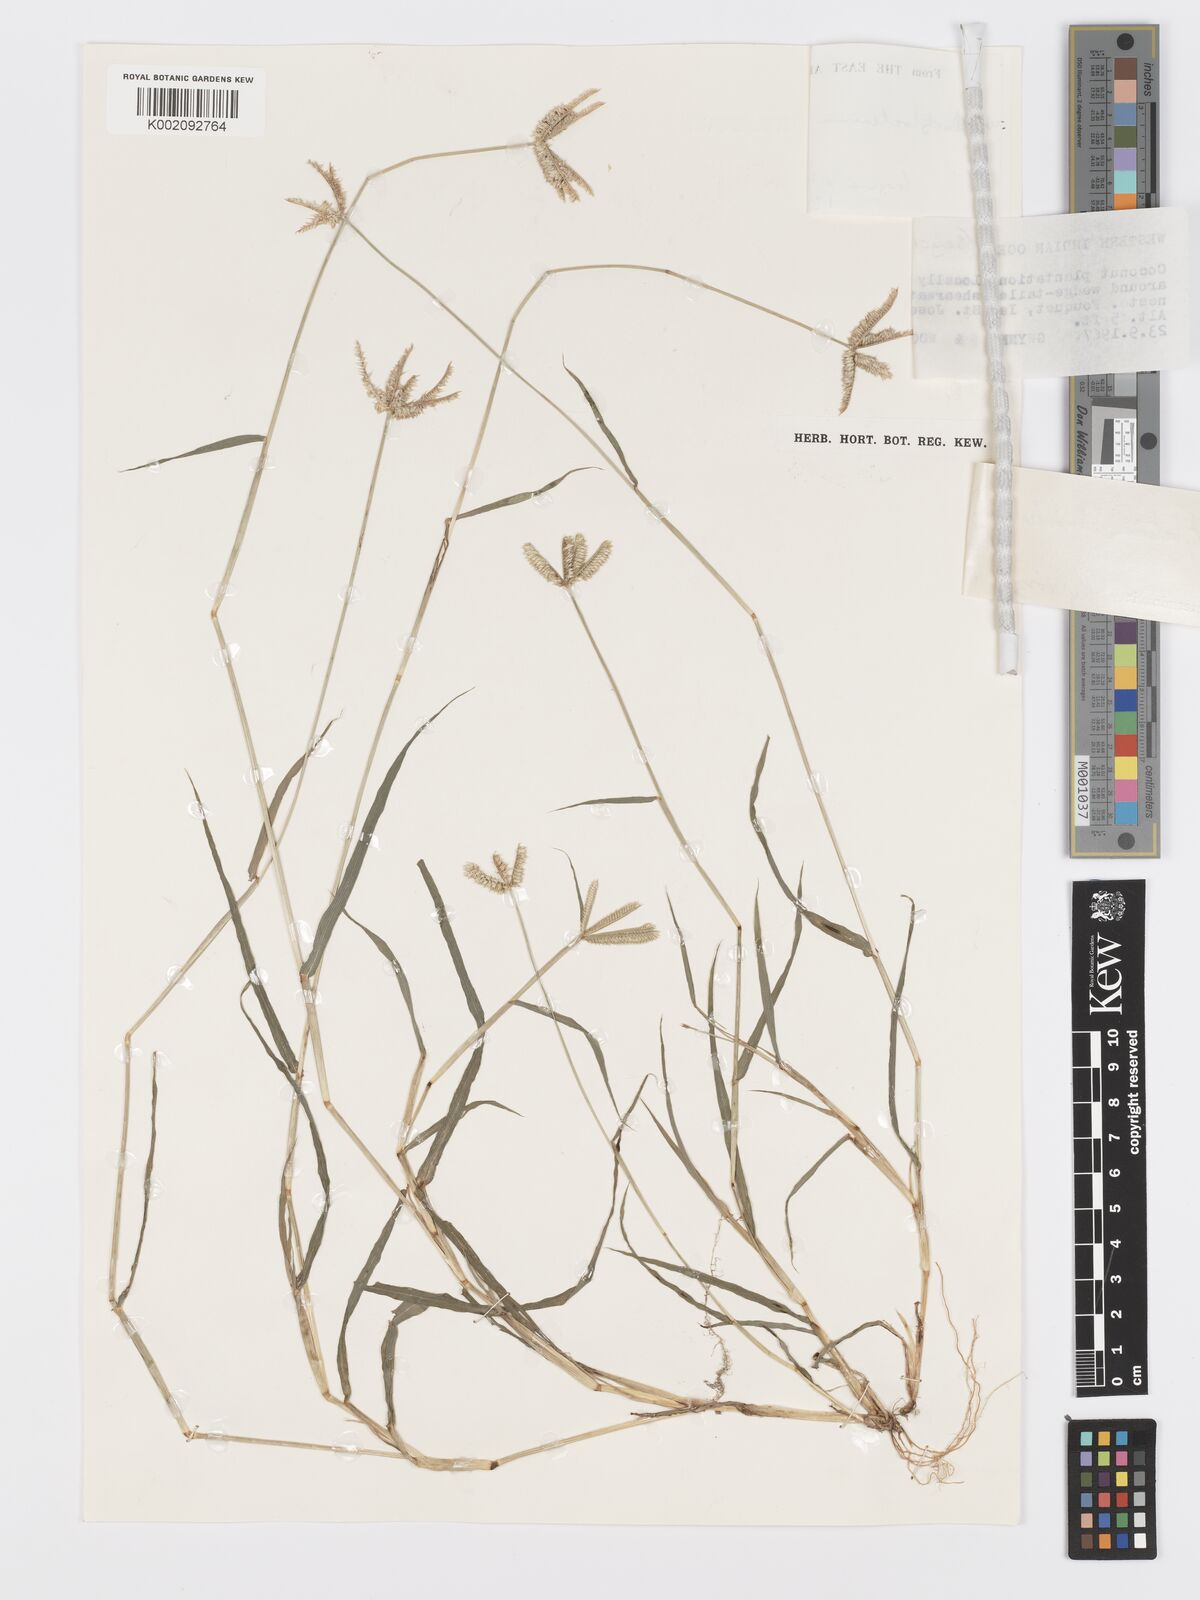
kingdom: Plantae
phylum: Tracheophyta
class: Liliopsida
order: Poales
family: Poaceae
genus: Dactyloctenium
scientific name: Dactyloctenium ctenoides
